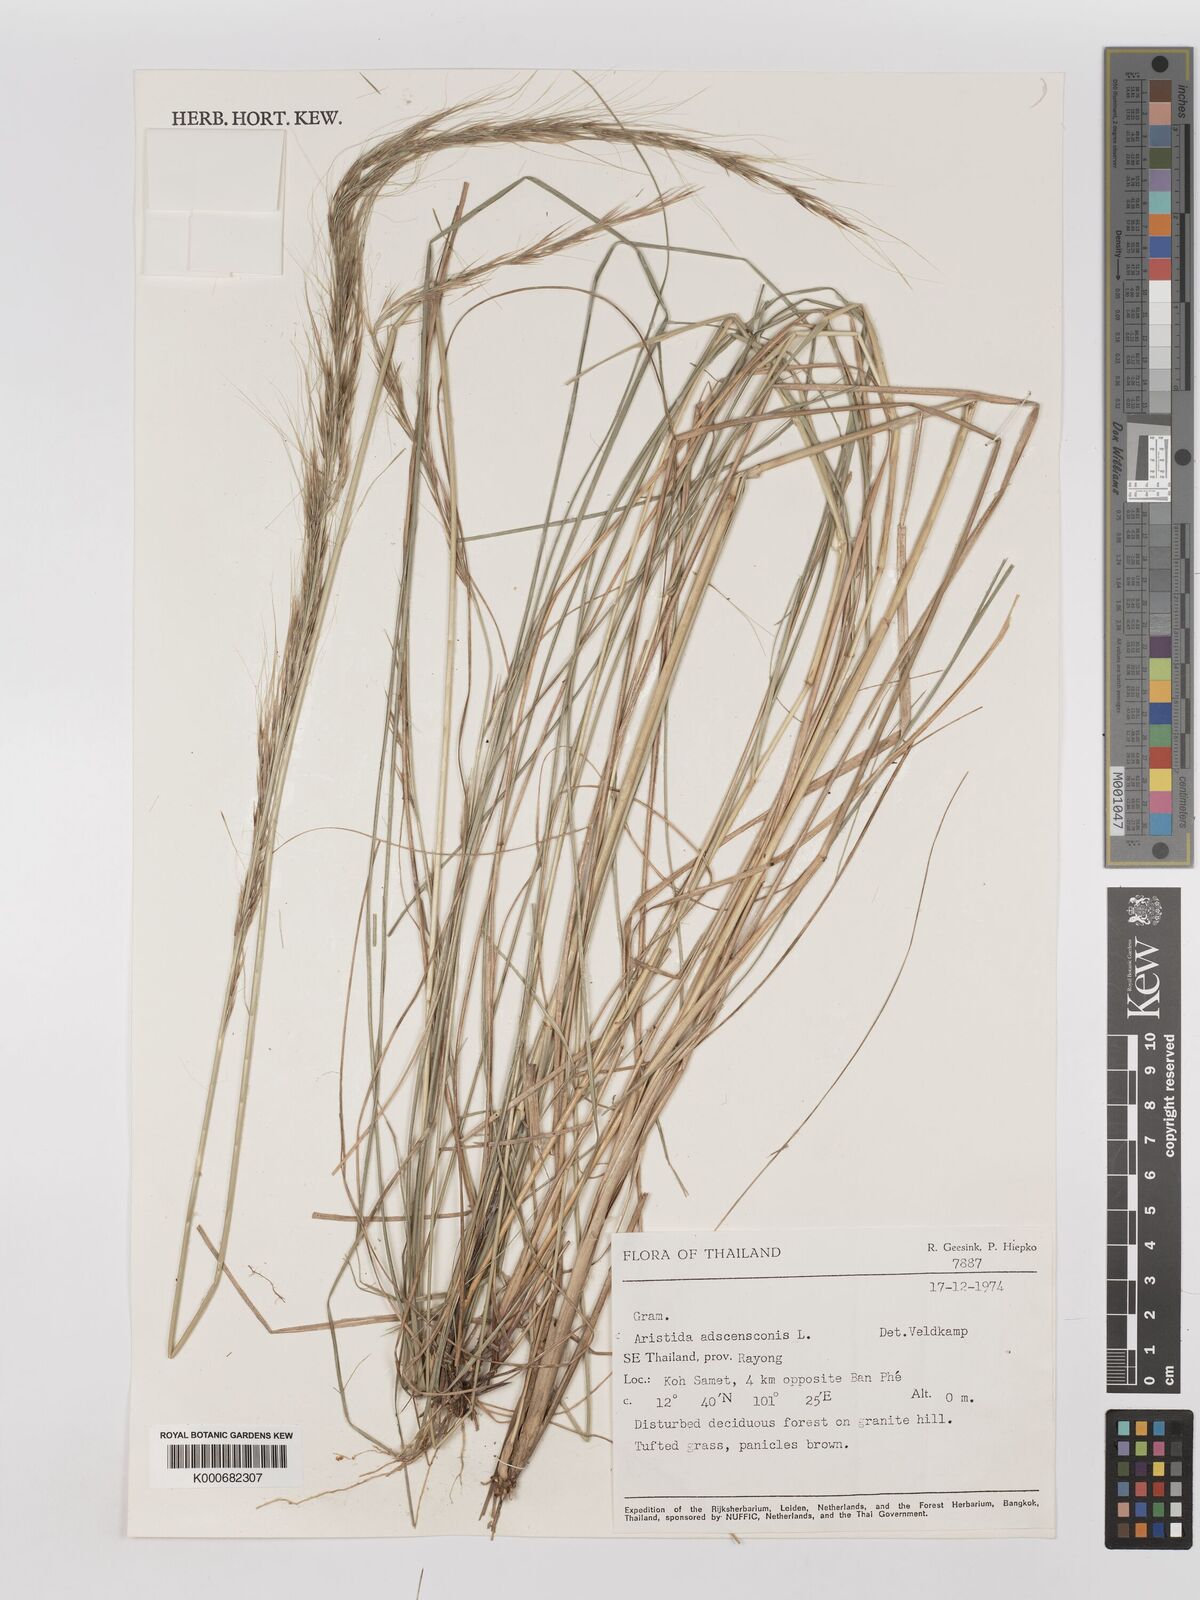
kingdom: Plantae
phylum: Tracheophyta
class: Liliopsida
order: Poales
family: Poaceae
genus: Aristida
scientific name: Aristida adscensionis
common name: Sixweeks threeawn
